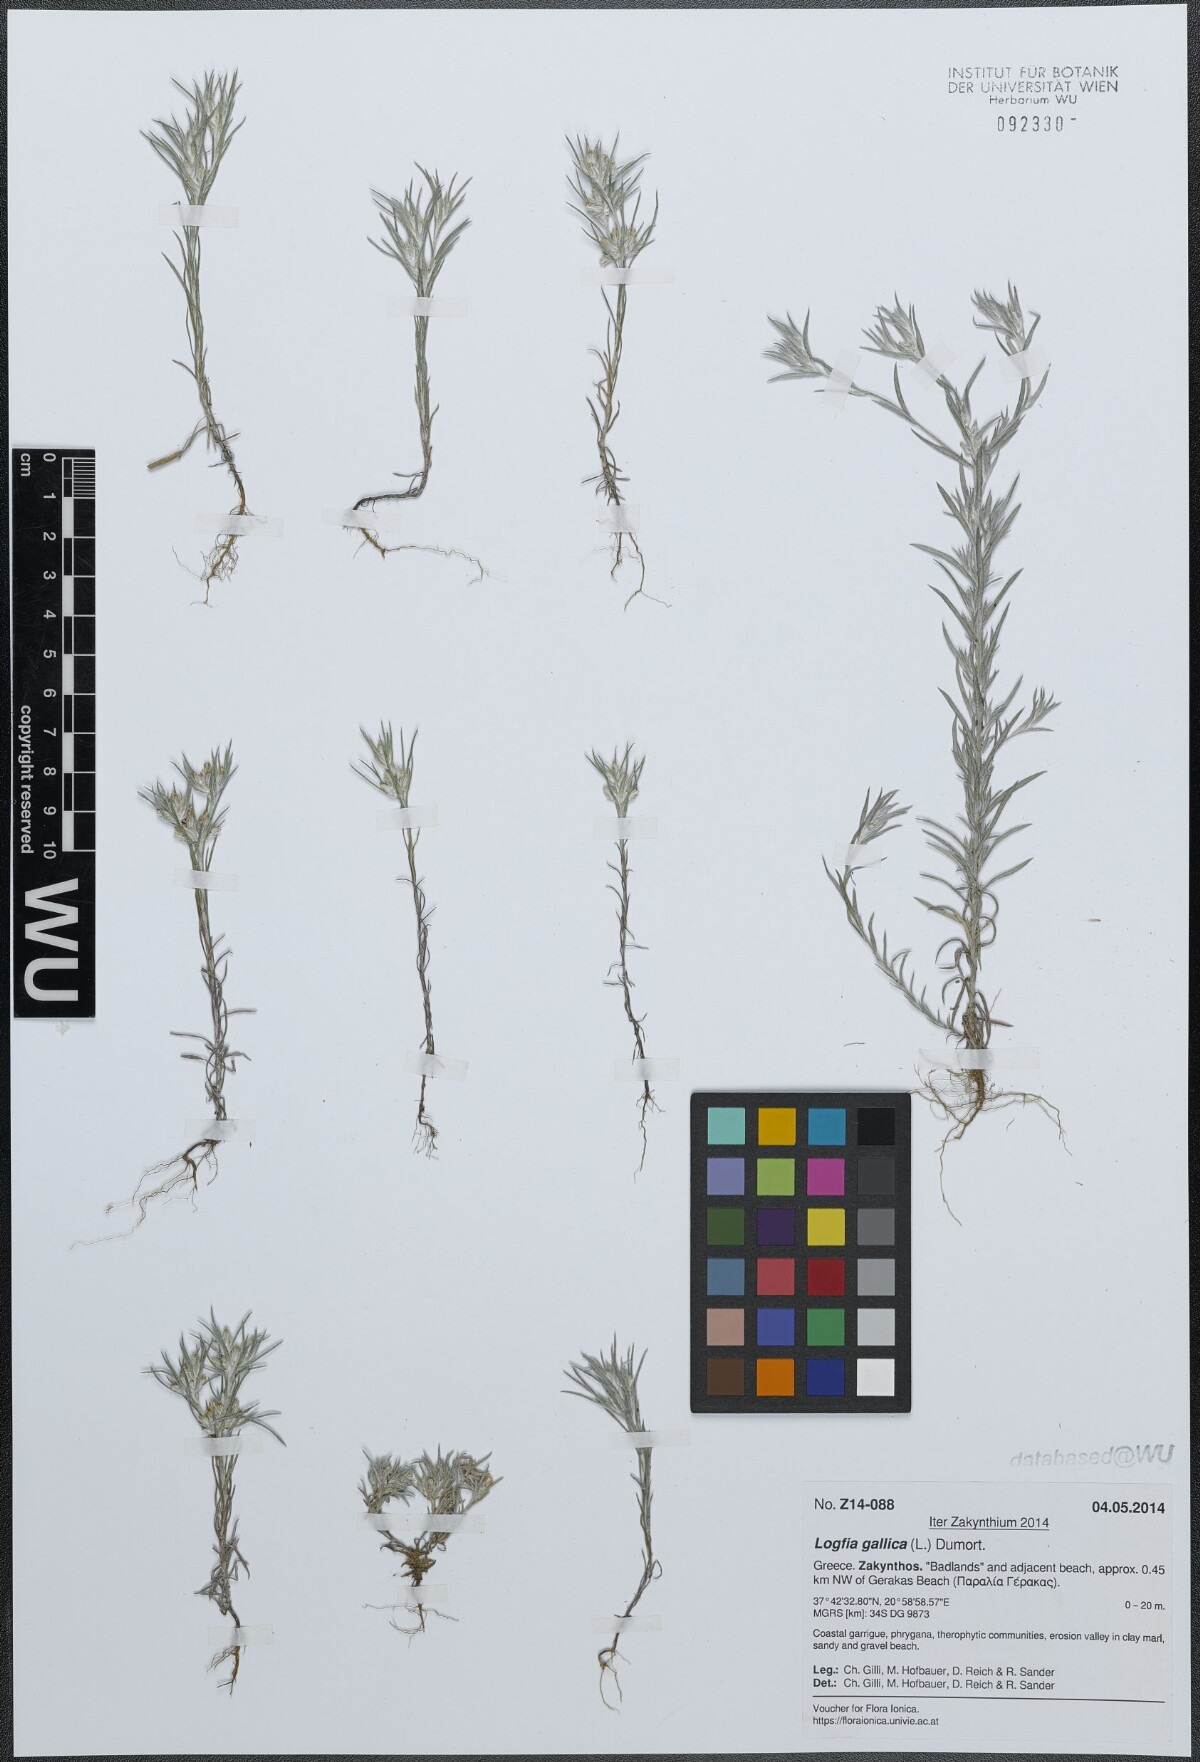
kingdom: Plantae
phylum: Tracheophyta
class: Magnoliopsida
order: Asterales
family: Asteraceae
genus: Logfia
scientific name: Logfia gallica
